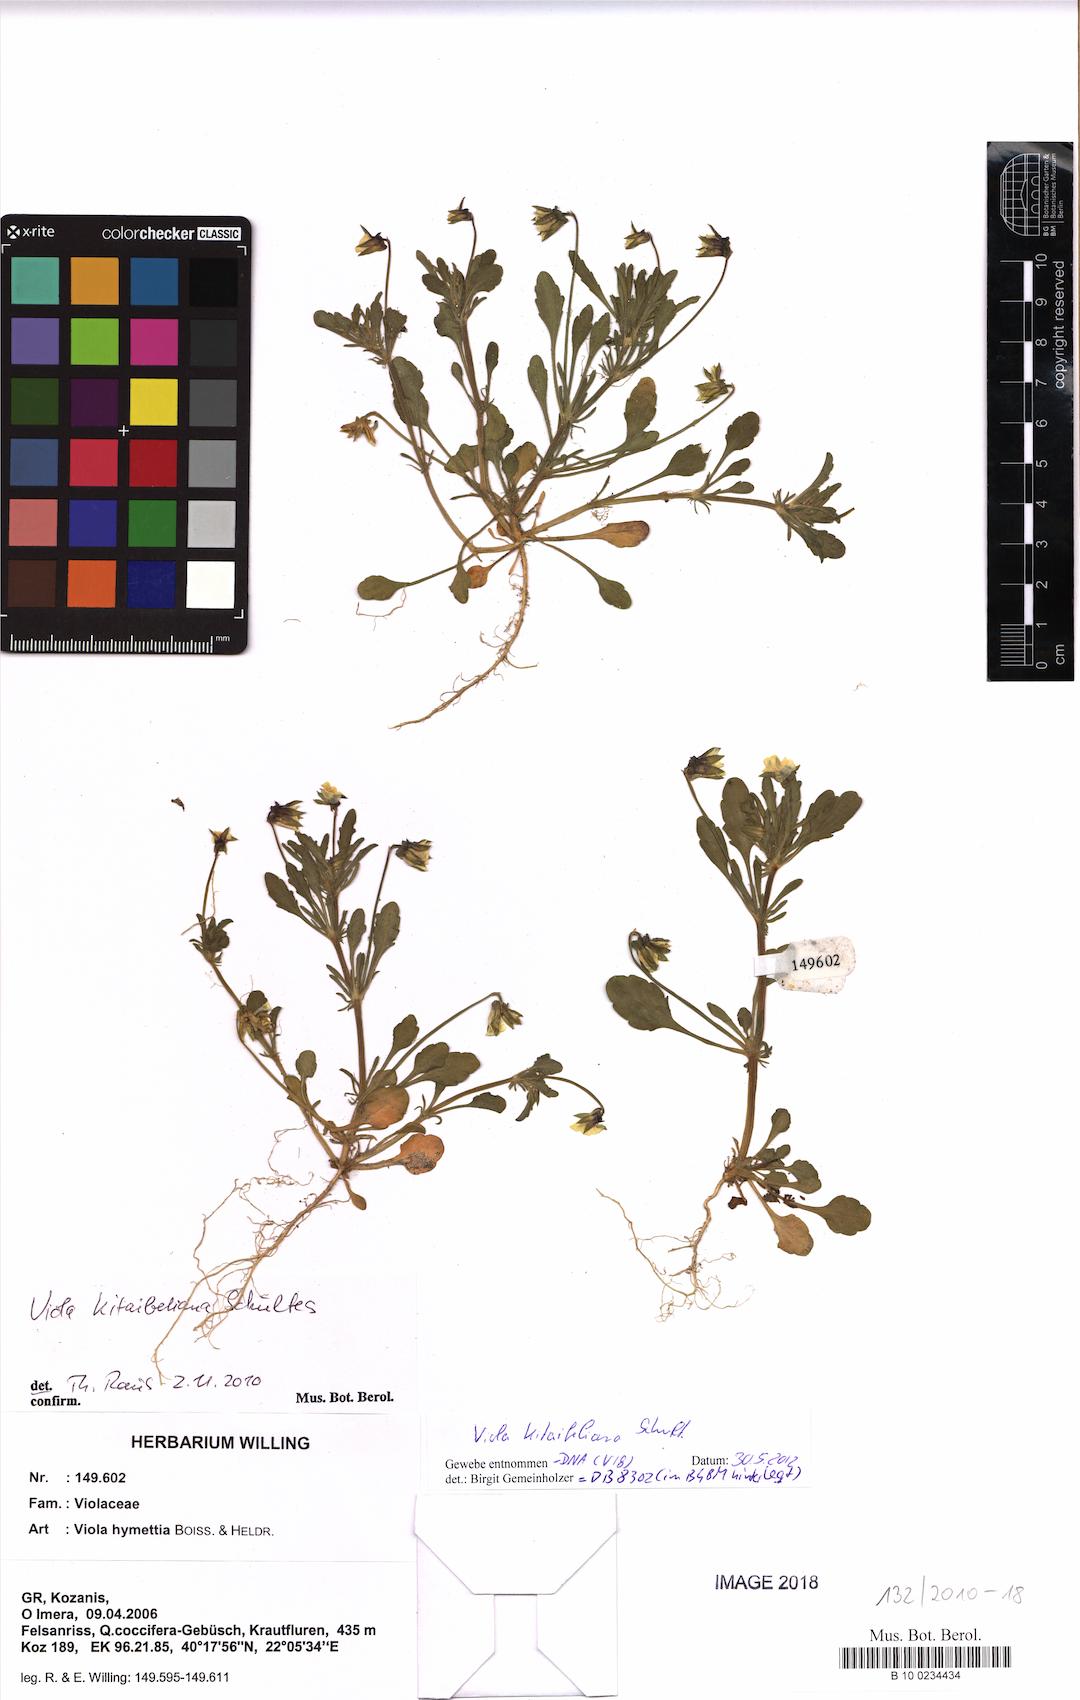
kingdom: Plantae
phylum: Tracheophyta
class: Magnoliopsida
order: Malpighiales
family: Violaceae
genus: Viola
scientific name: Viola kitaibeliana
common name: Dwarf pansy
